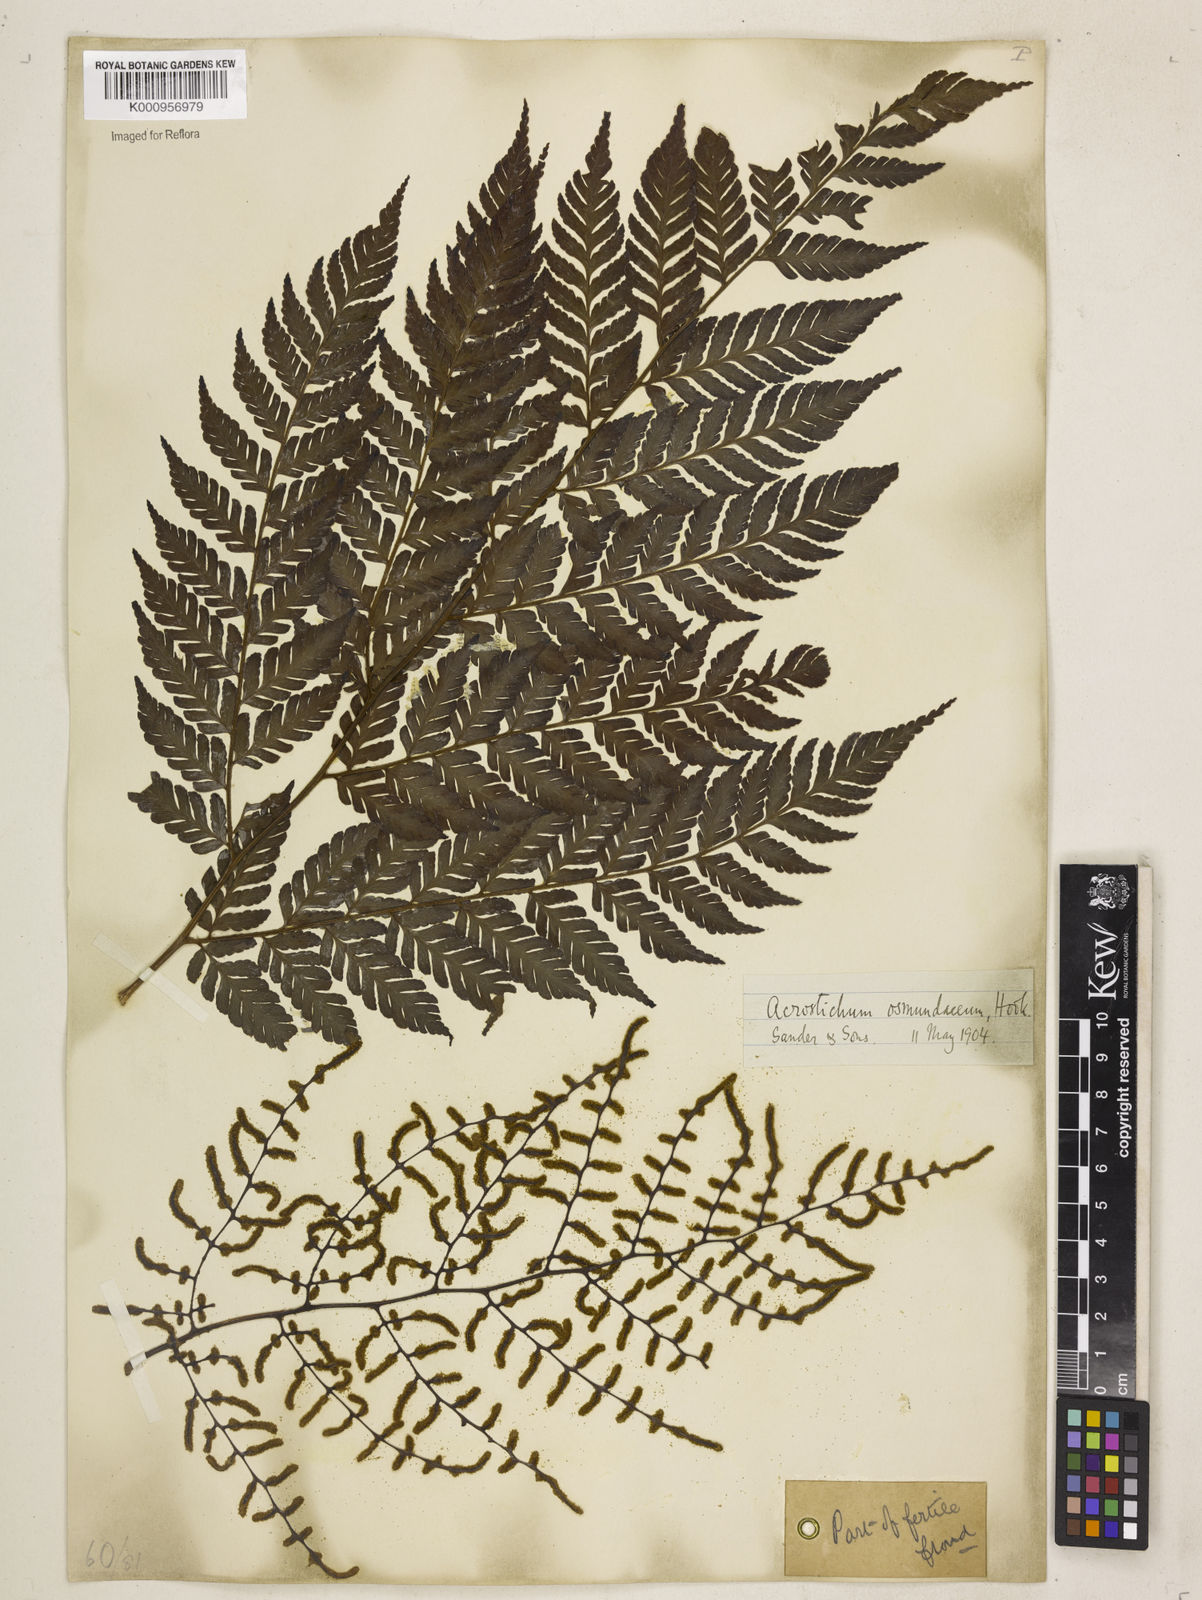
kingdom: Plantae
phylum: Tracheophyta
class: Polypodiopsida
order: Polypodiales
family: Dryopteridaceae
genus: Polybotrya
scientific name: Polybotrya osmundacea
